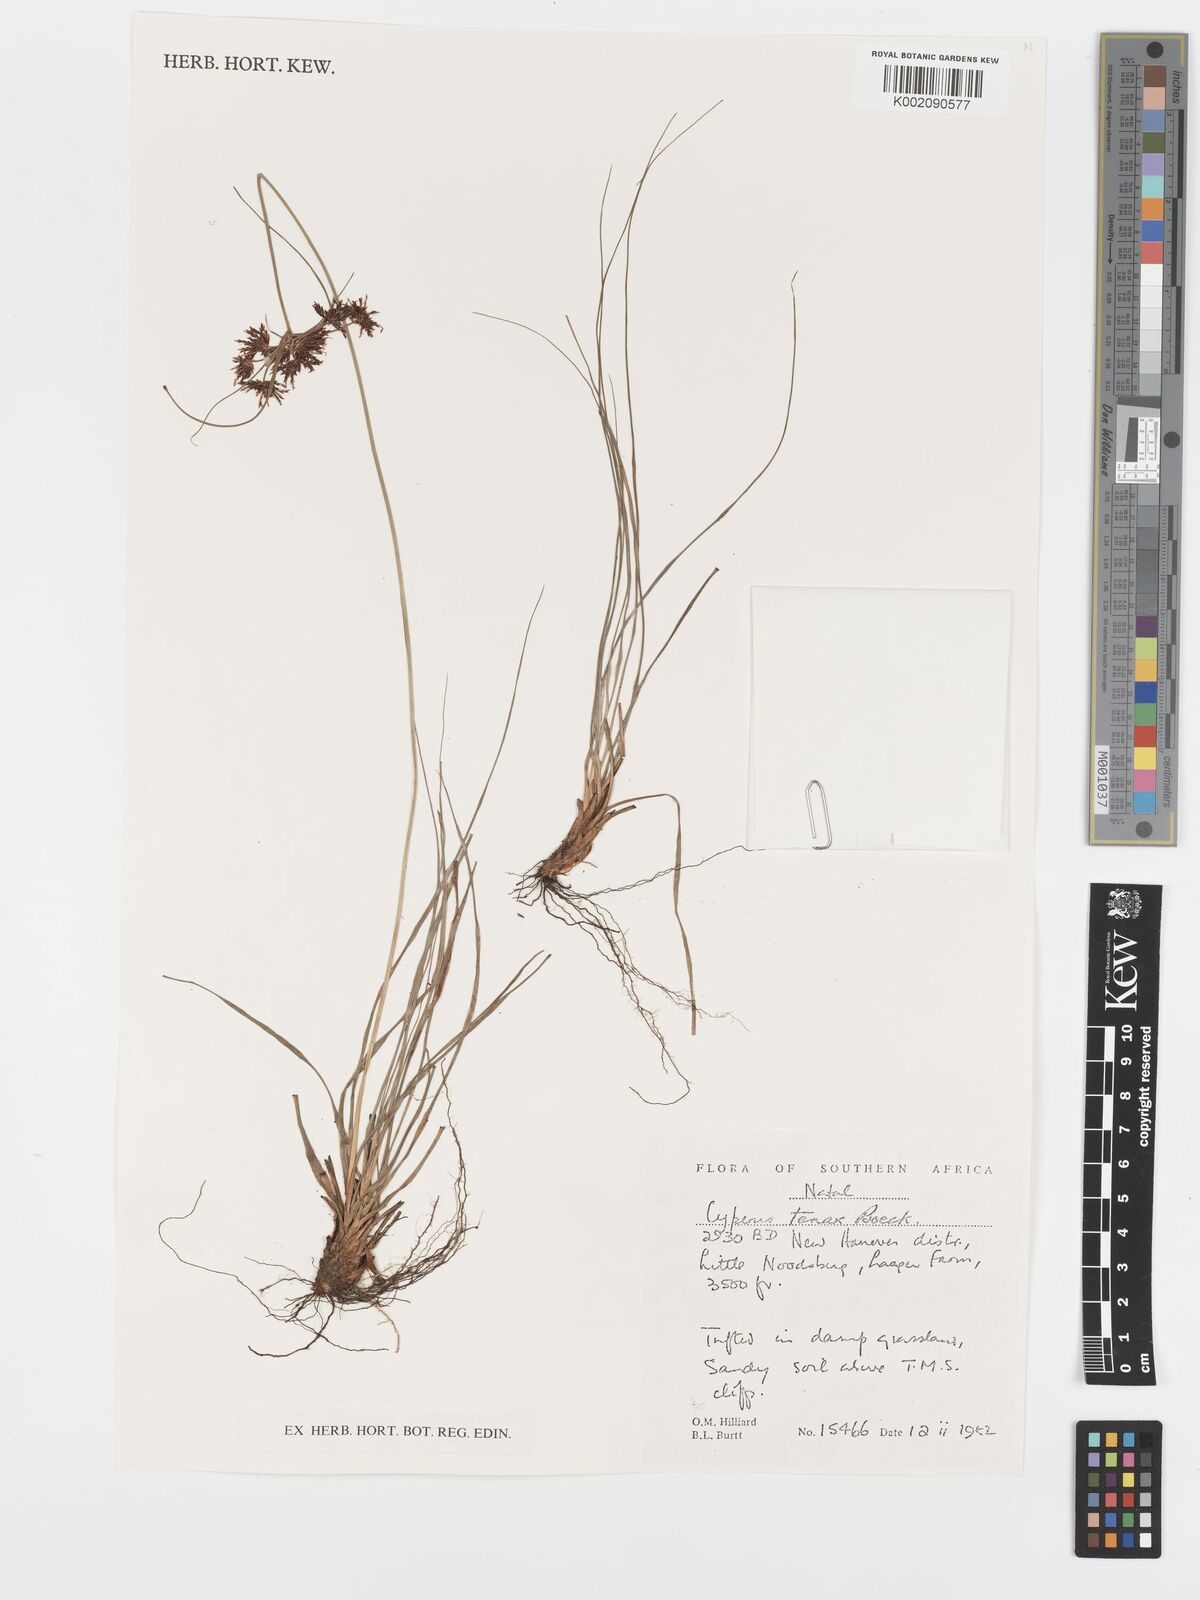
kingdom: Plantae
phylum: Tracheophyta
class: Liliopsida
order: Poales
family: Cyperaceae
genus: Cyperus
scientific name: Cyperus tenax
